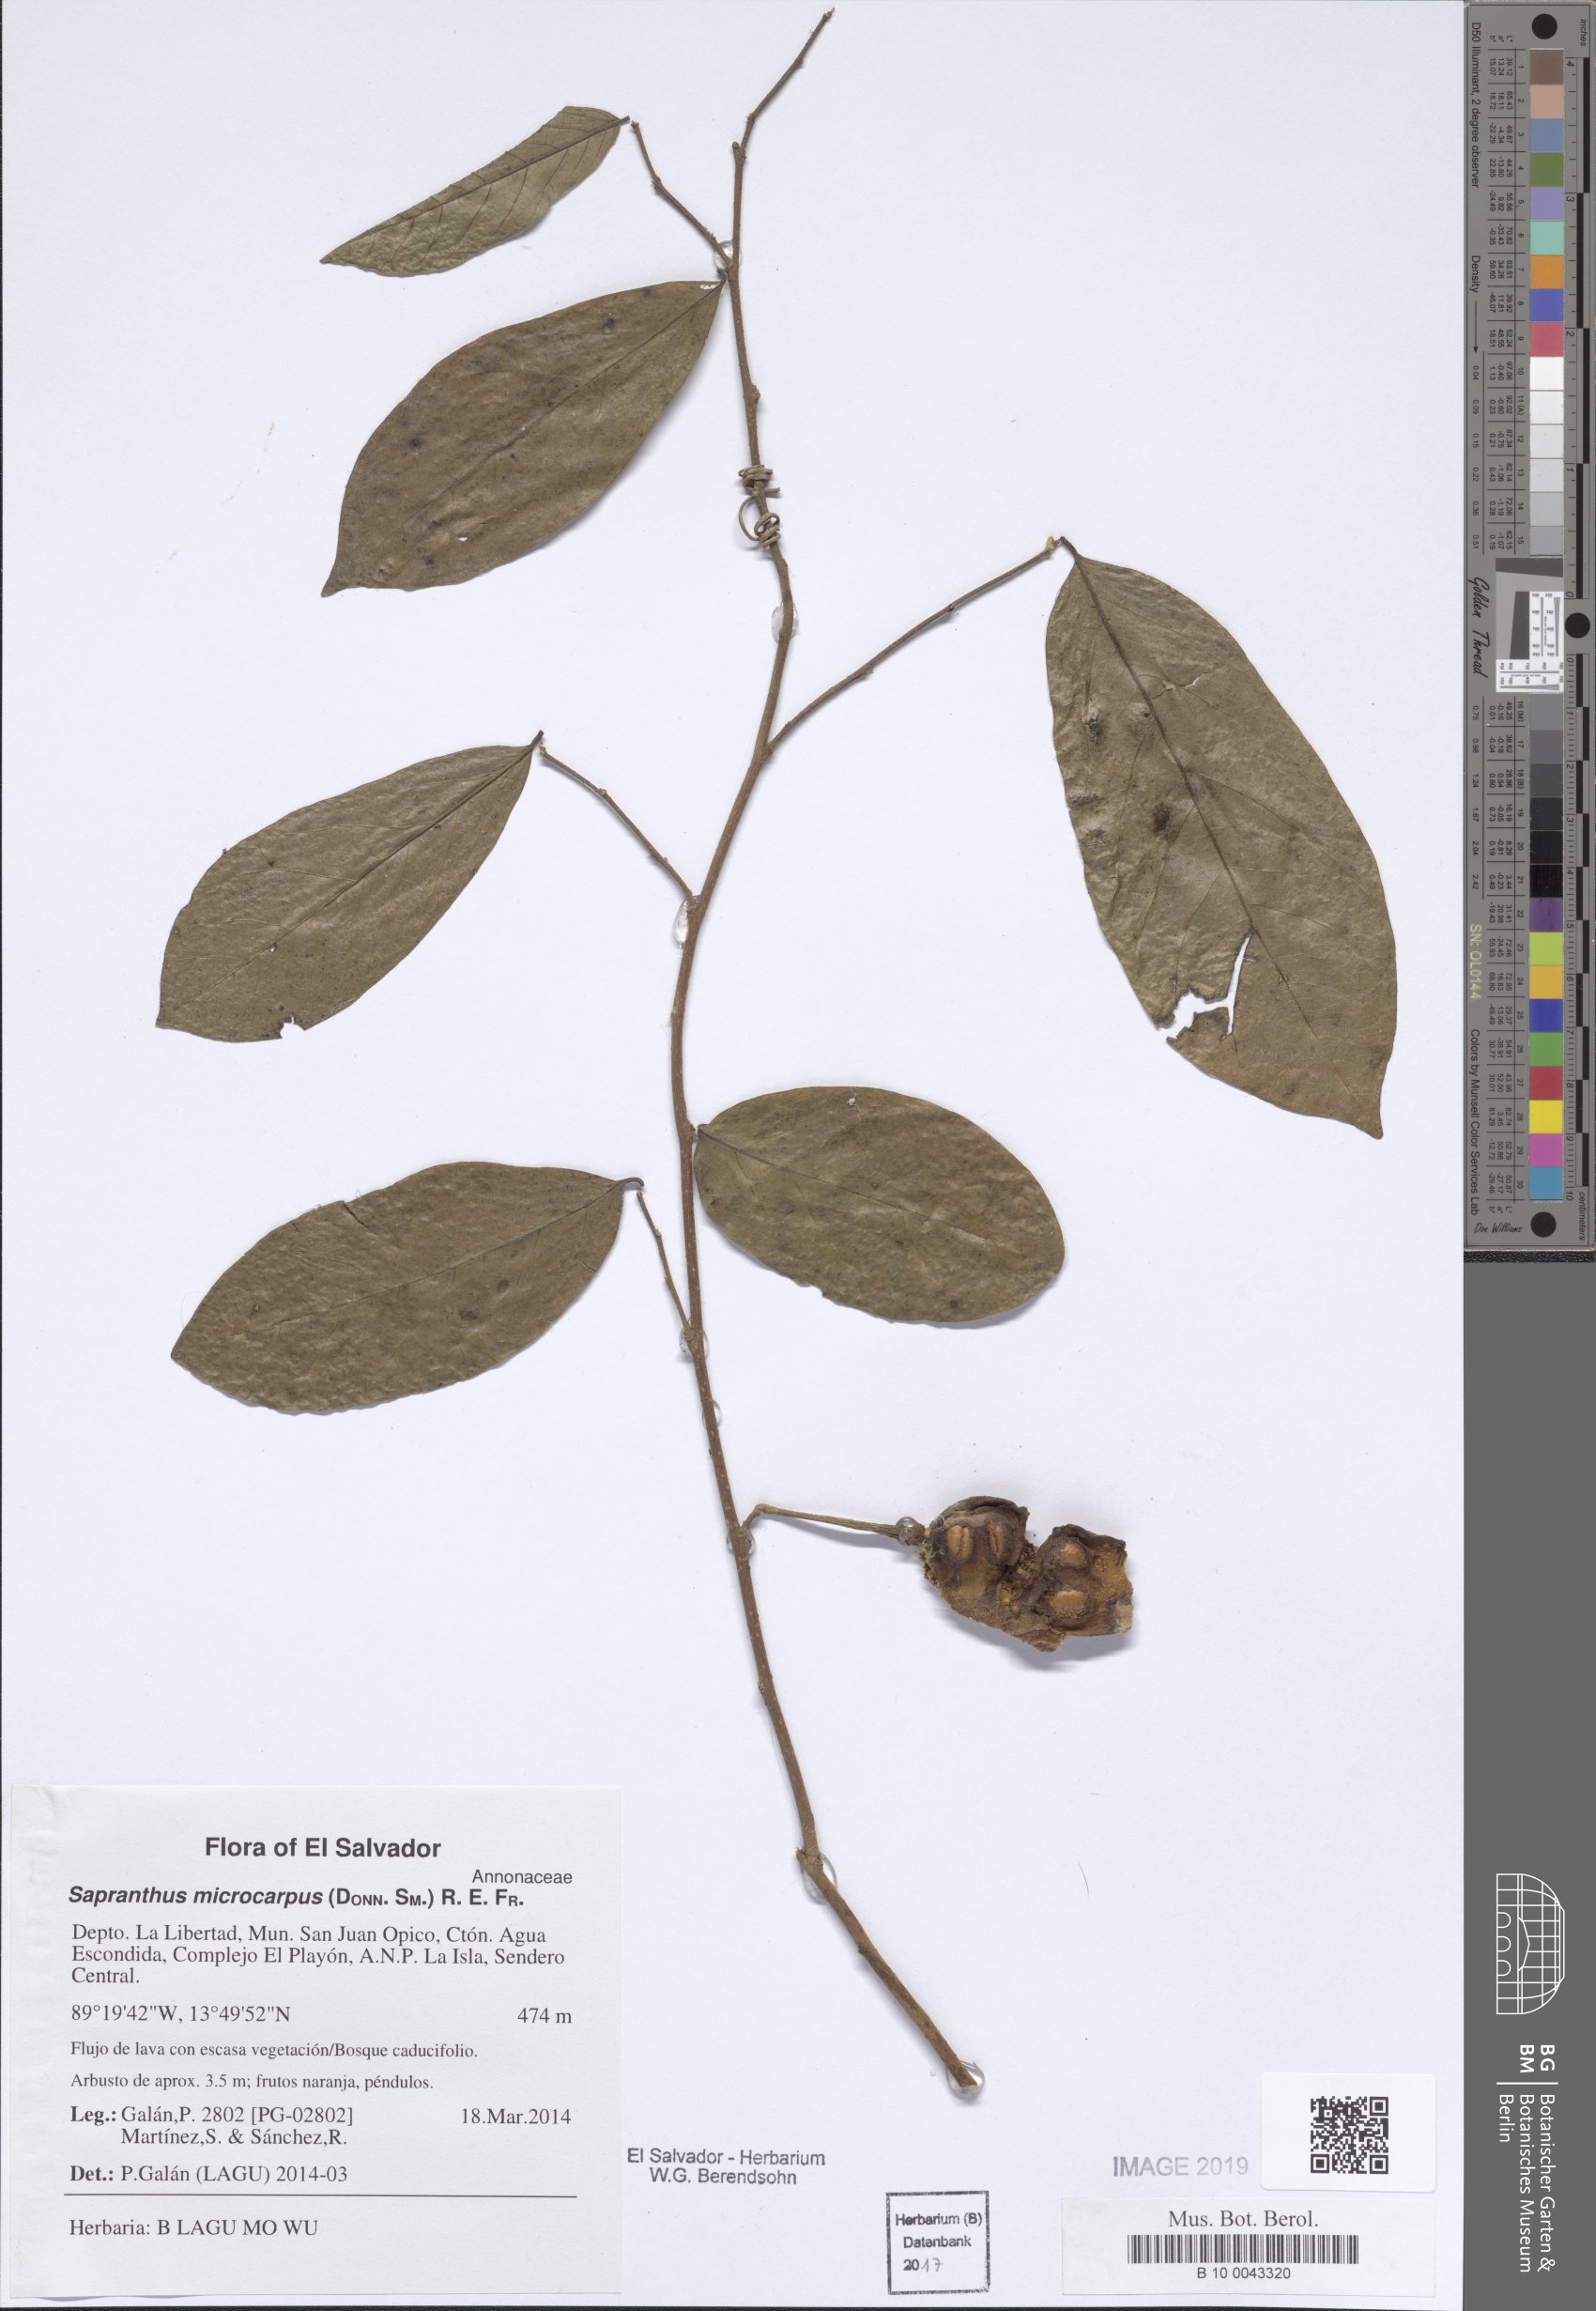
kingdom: Plantae
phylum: Tracheophyta
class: Magnoliopsida
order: Magnoliales
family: Annonaceae
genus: Sapranthus
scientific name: Sapranthus microcarpus
